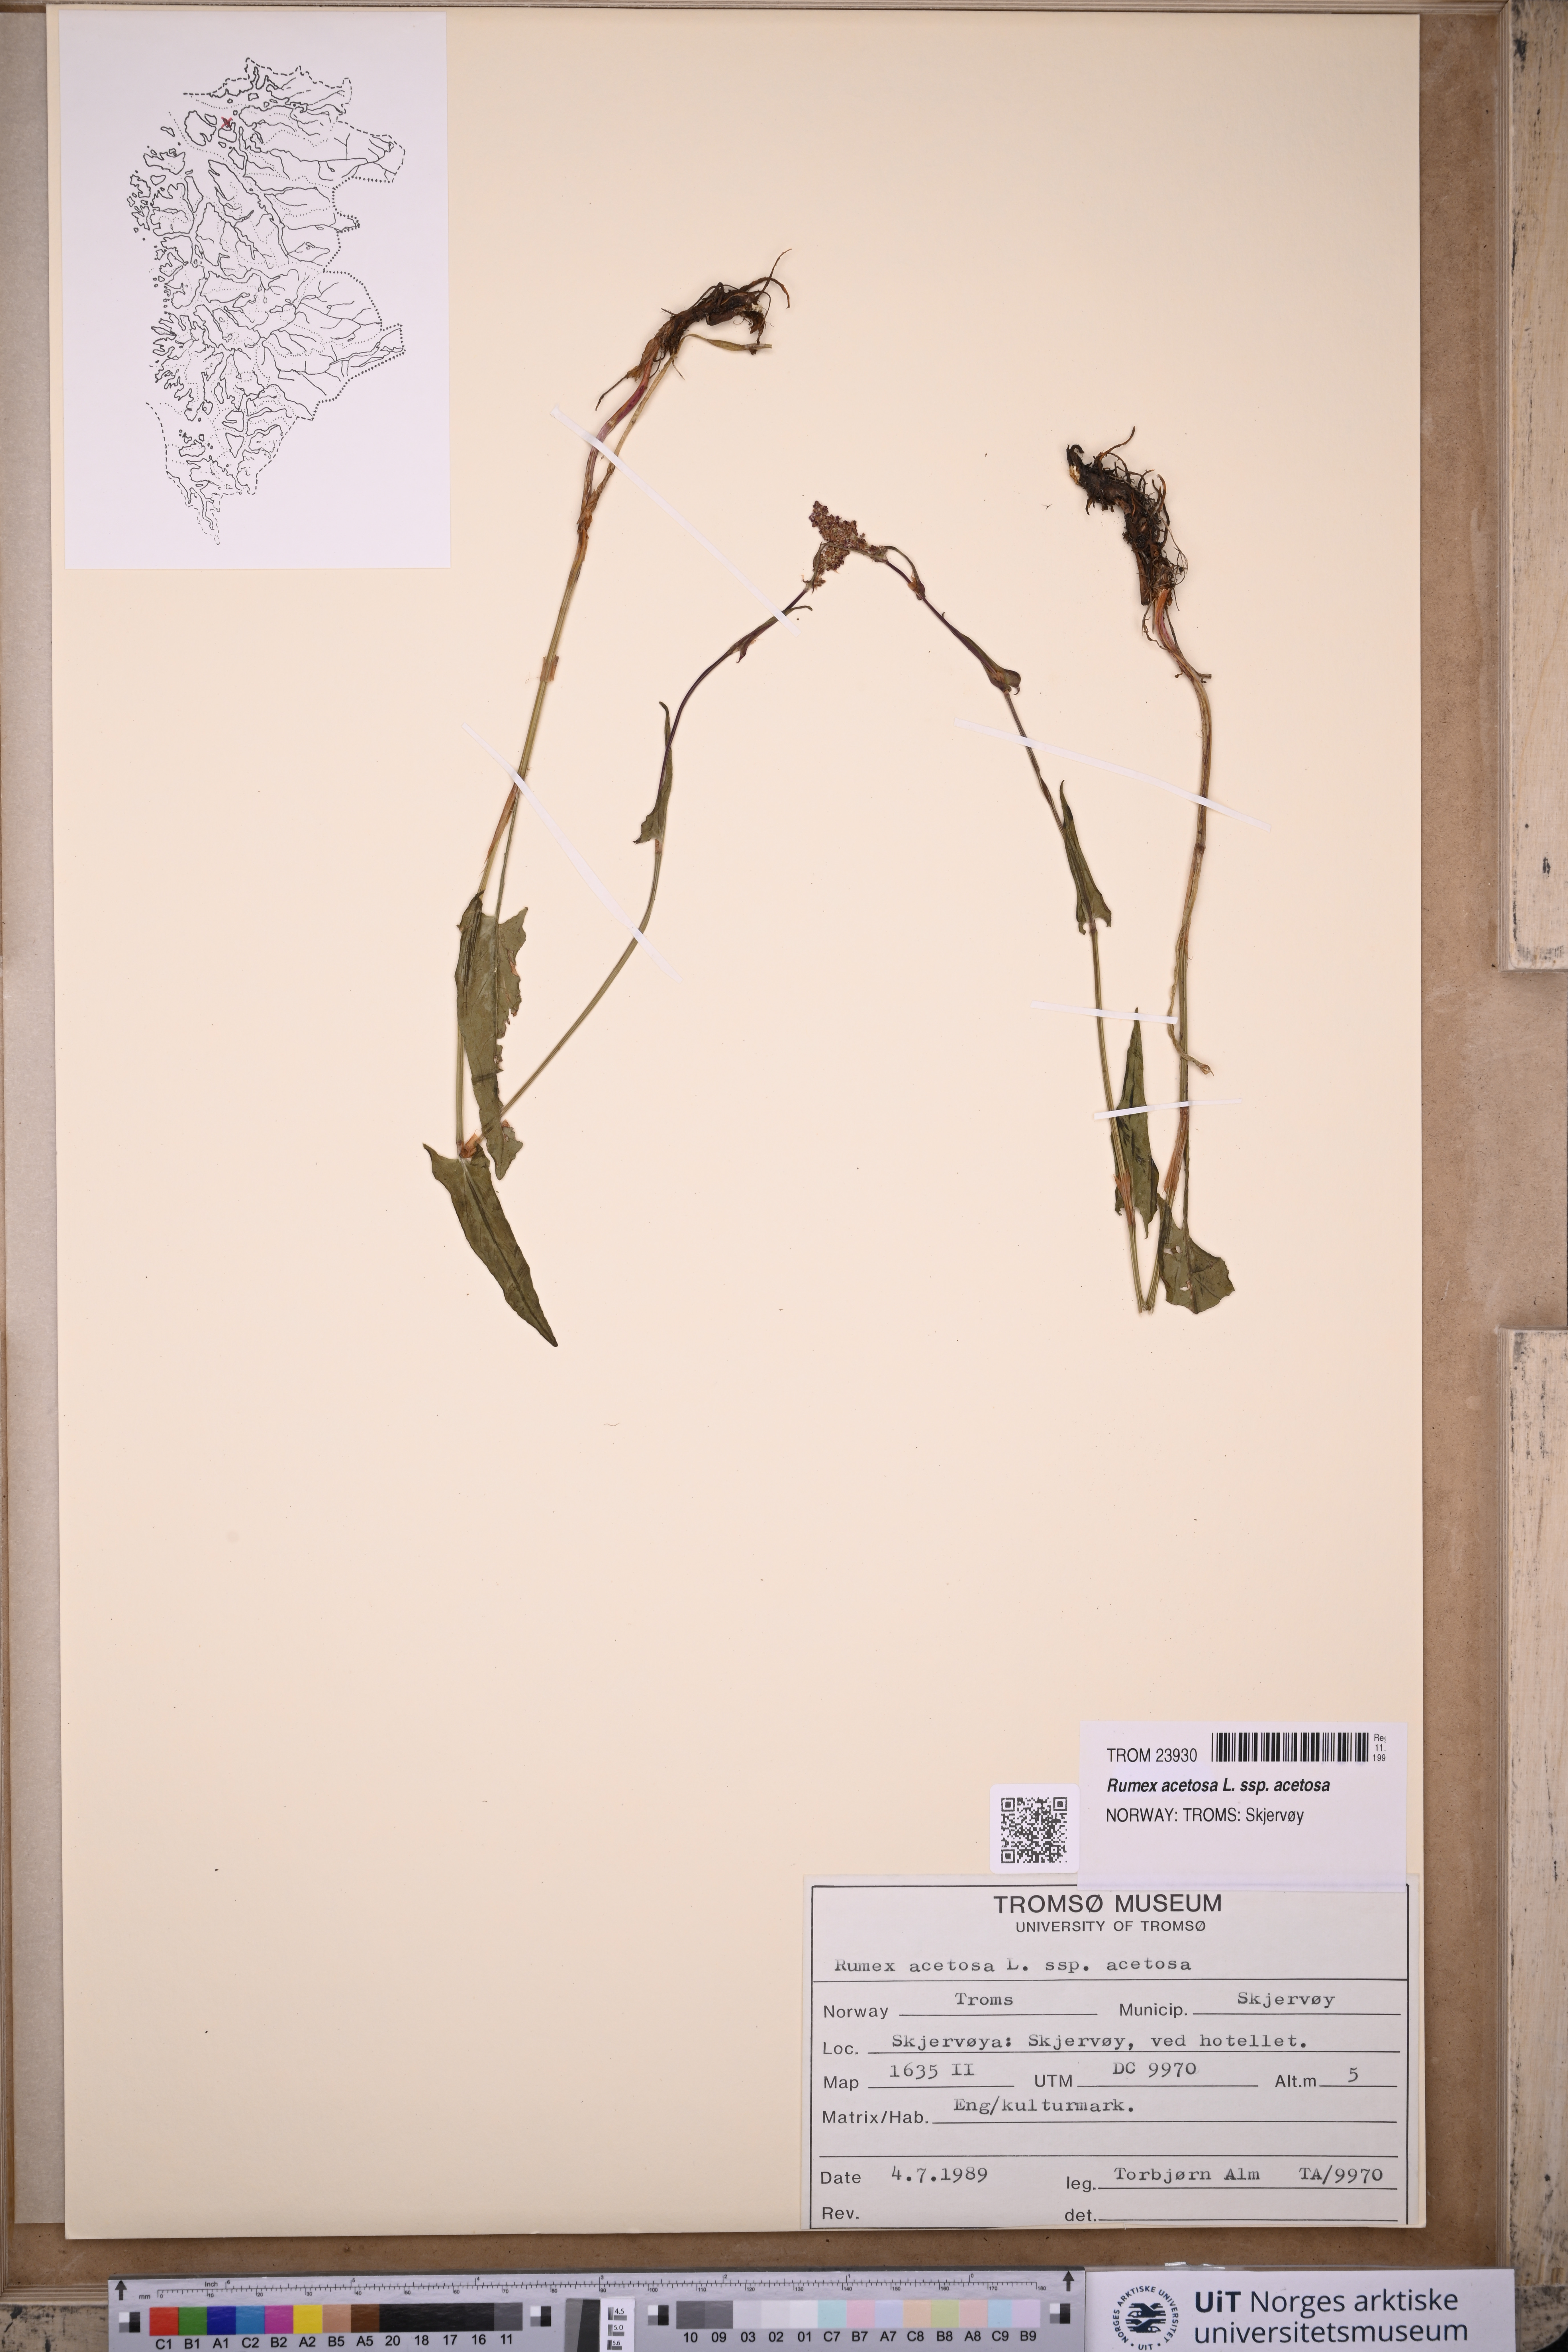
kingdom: Plantae
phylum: Tracheophyta
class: Magnoliopsida
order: Caryophyllales
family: Polygonaceae
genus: Rumex
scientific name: Rumex acetosa
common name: Garden sorrel
